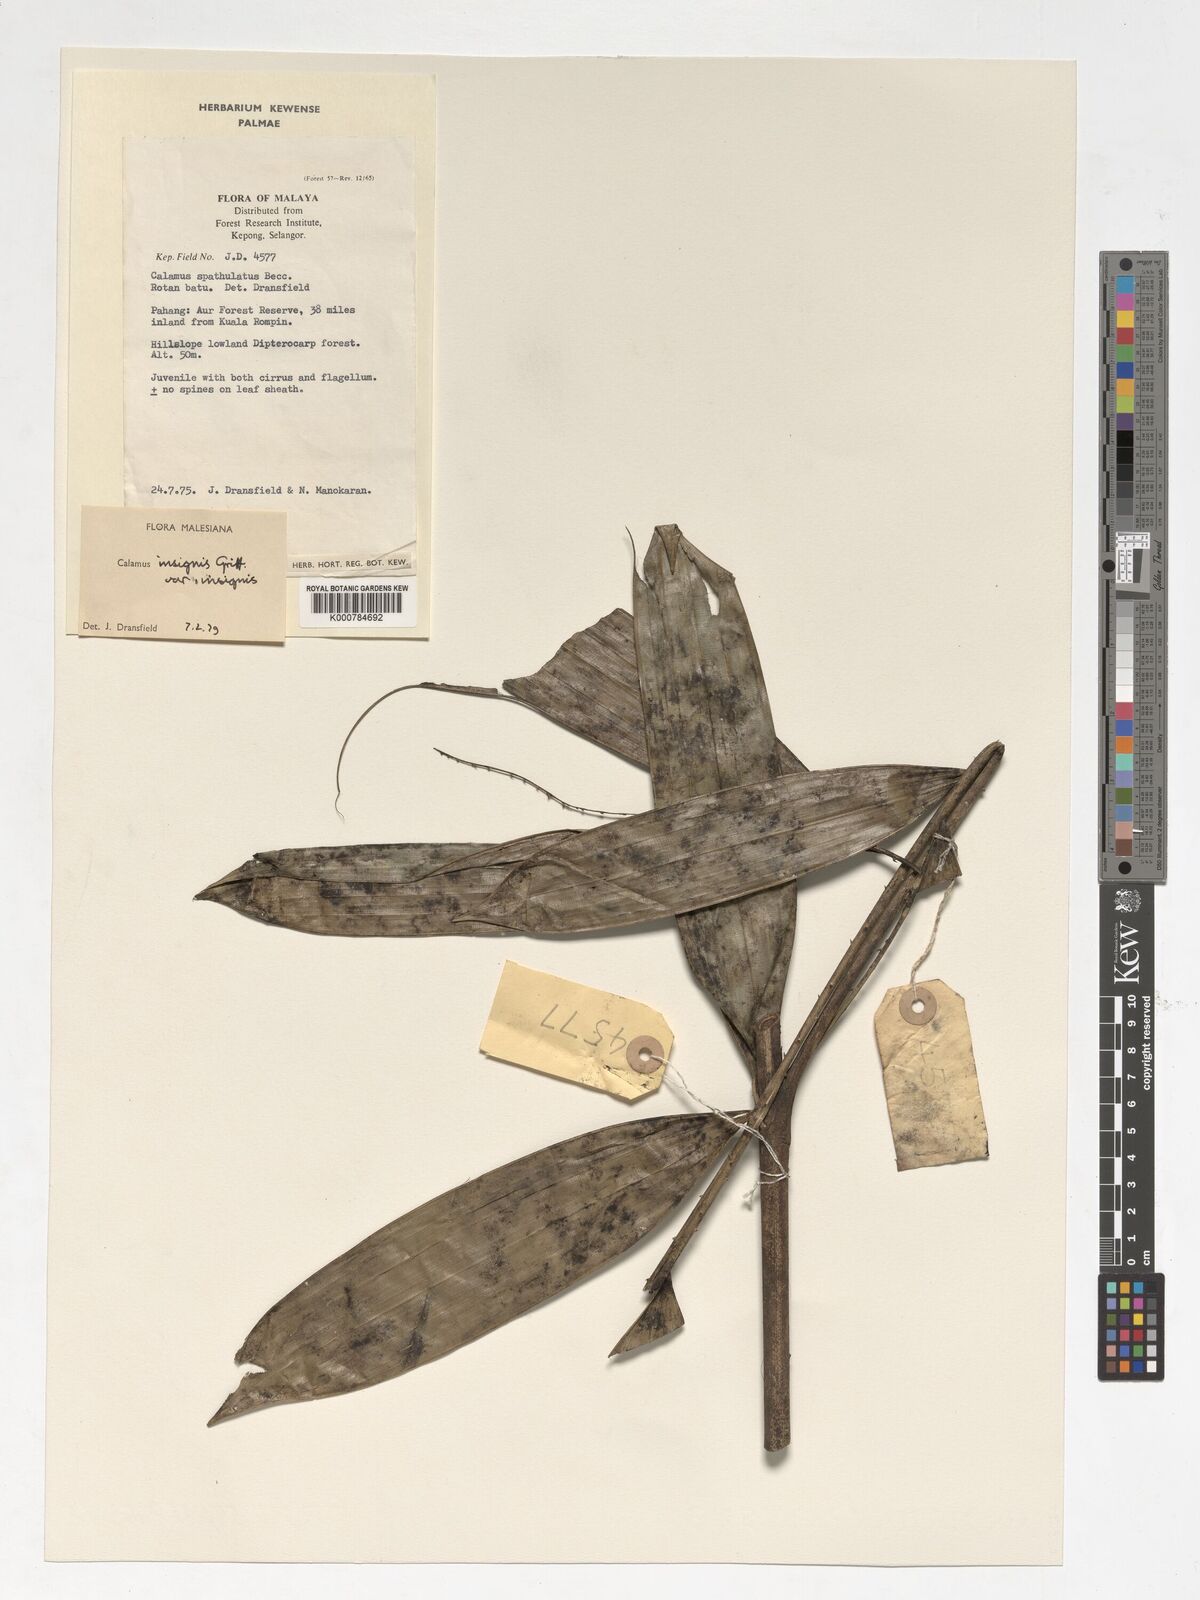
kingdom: Plantae
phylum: Tracheophyta
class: Liliopsida
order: Arecales
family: Arecaceae
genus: Calamus
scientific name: Calamus insignis
